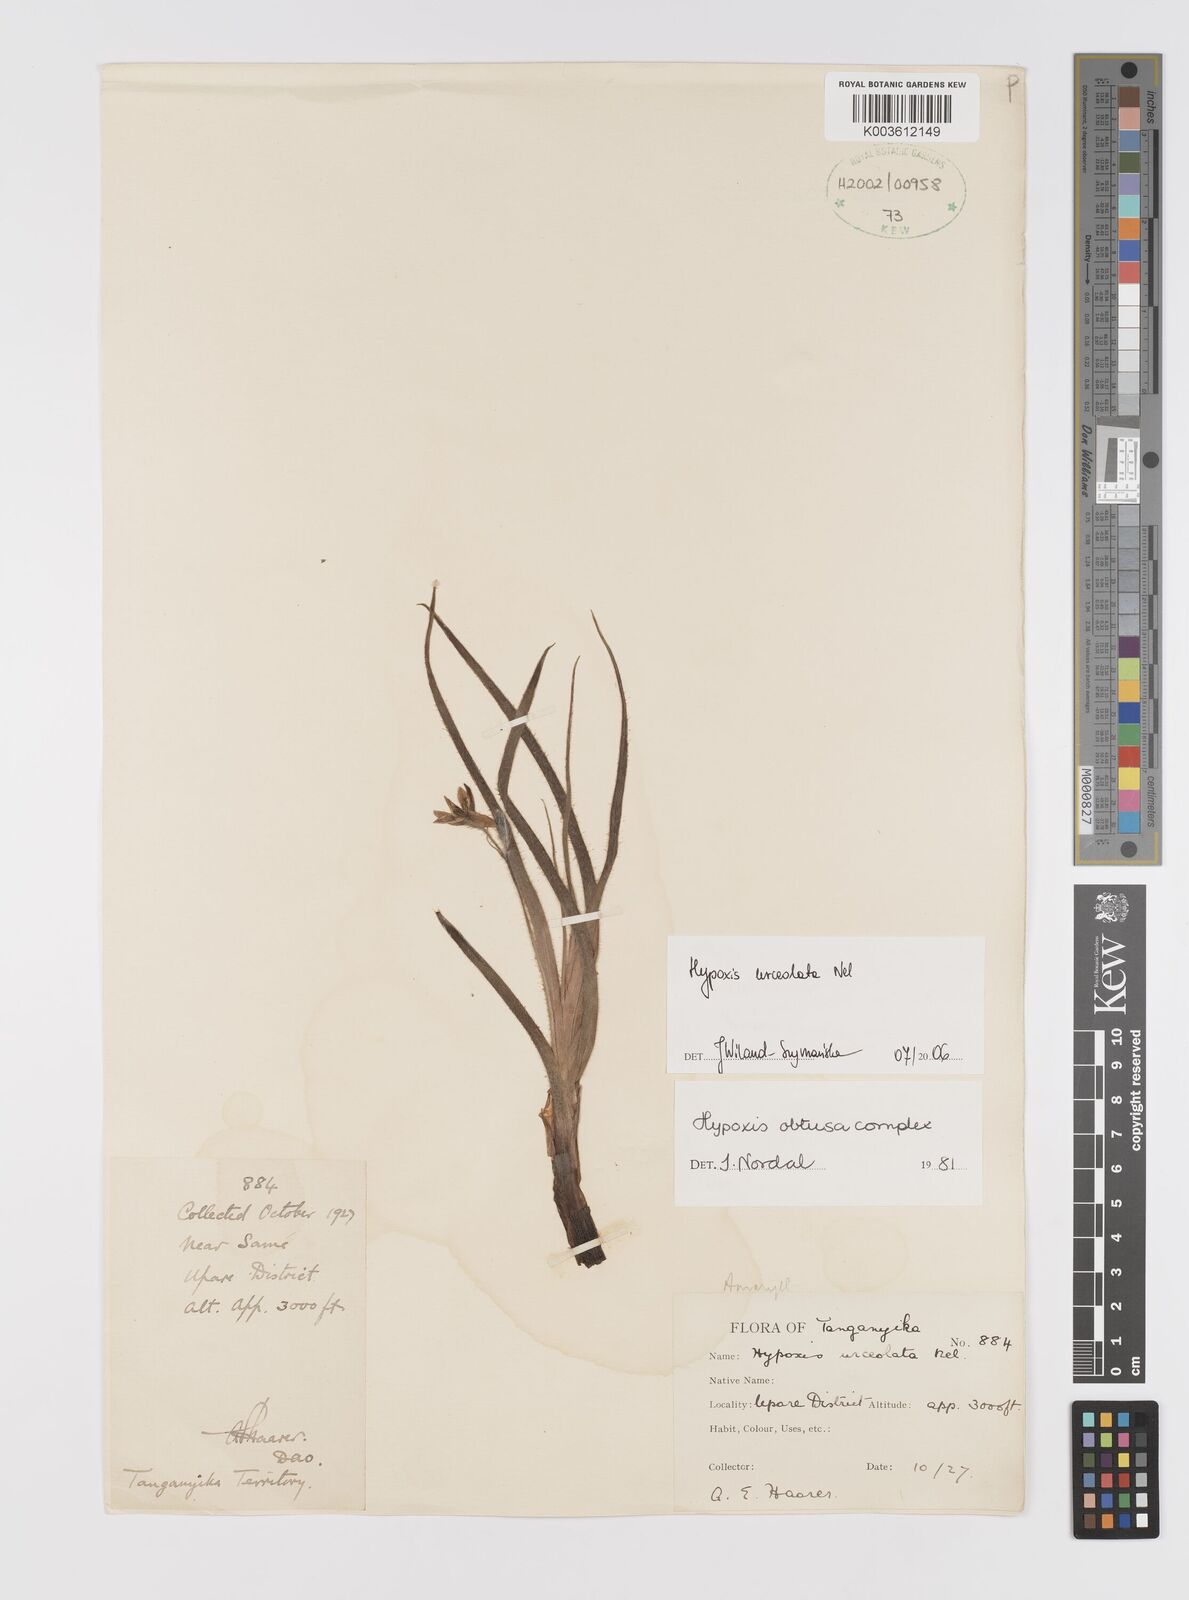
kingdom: Plantae
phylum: Tracheophyta
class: Liliopsida
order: Asparagales
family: Hypoxidaceae
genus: Hypoxis
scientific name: Hypoxis urceolata
